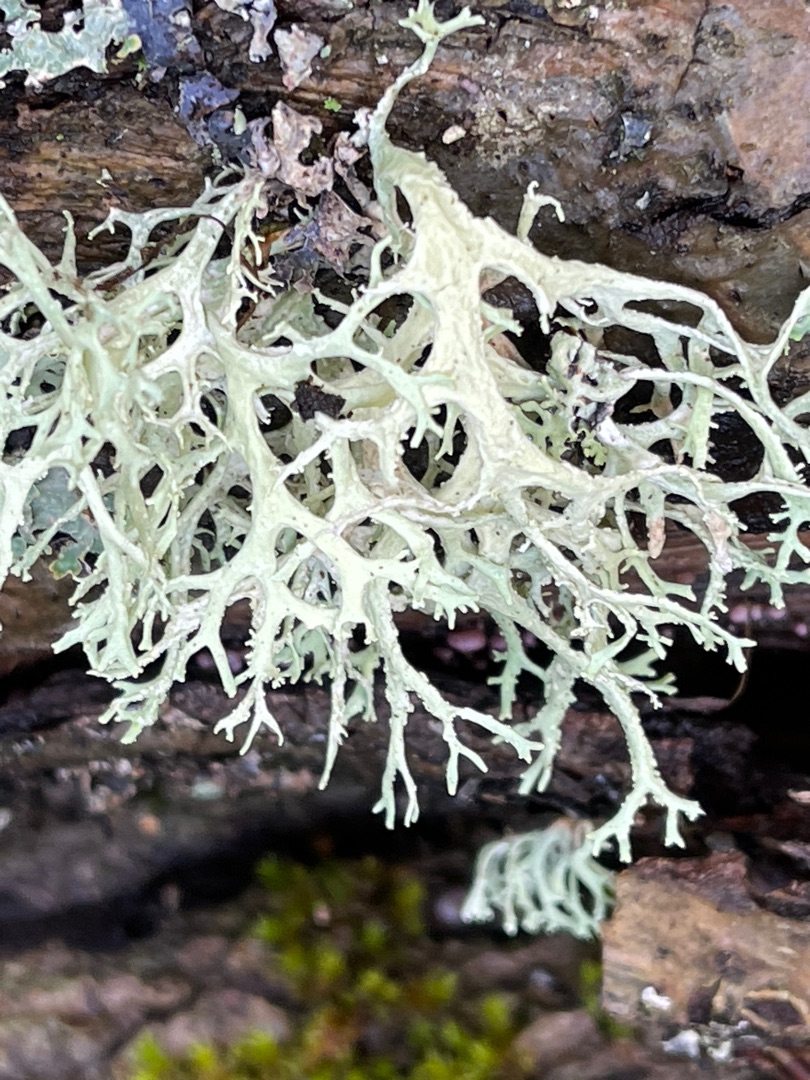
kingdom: Fungi
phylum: Ascomycota
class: Lecanoromycetes
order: Lecanorales
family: Parmeliaceae
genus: Evernia
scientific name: Evernia prunastri
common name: Almindelig slåenlav
